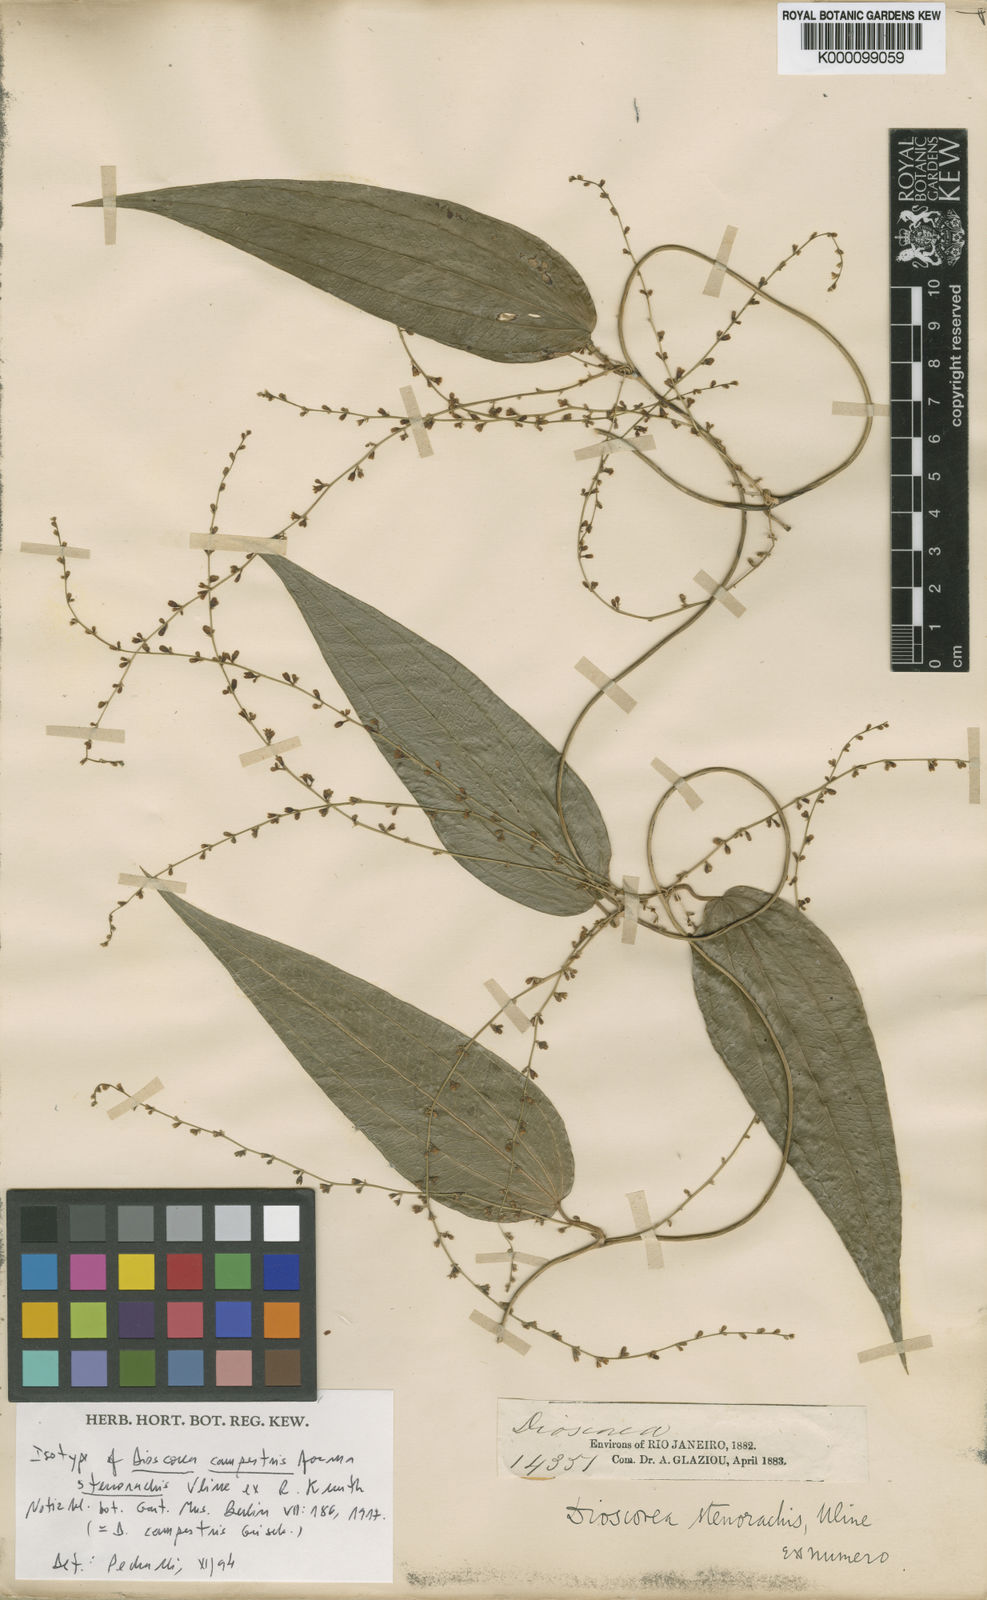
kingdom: Plantae
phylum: Tracheophyta
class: Liliopsida
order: Dioscoreales
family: Dioscoreaceae
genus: Dioscorea
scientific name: Dioscorea campestris
